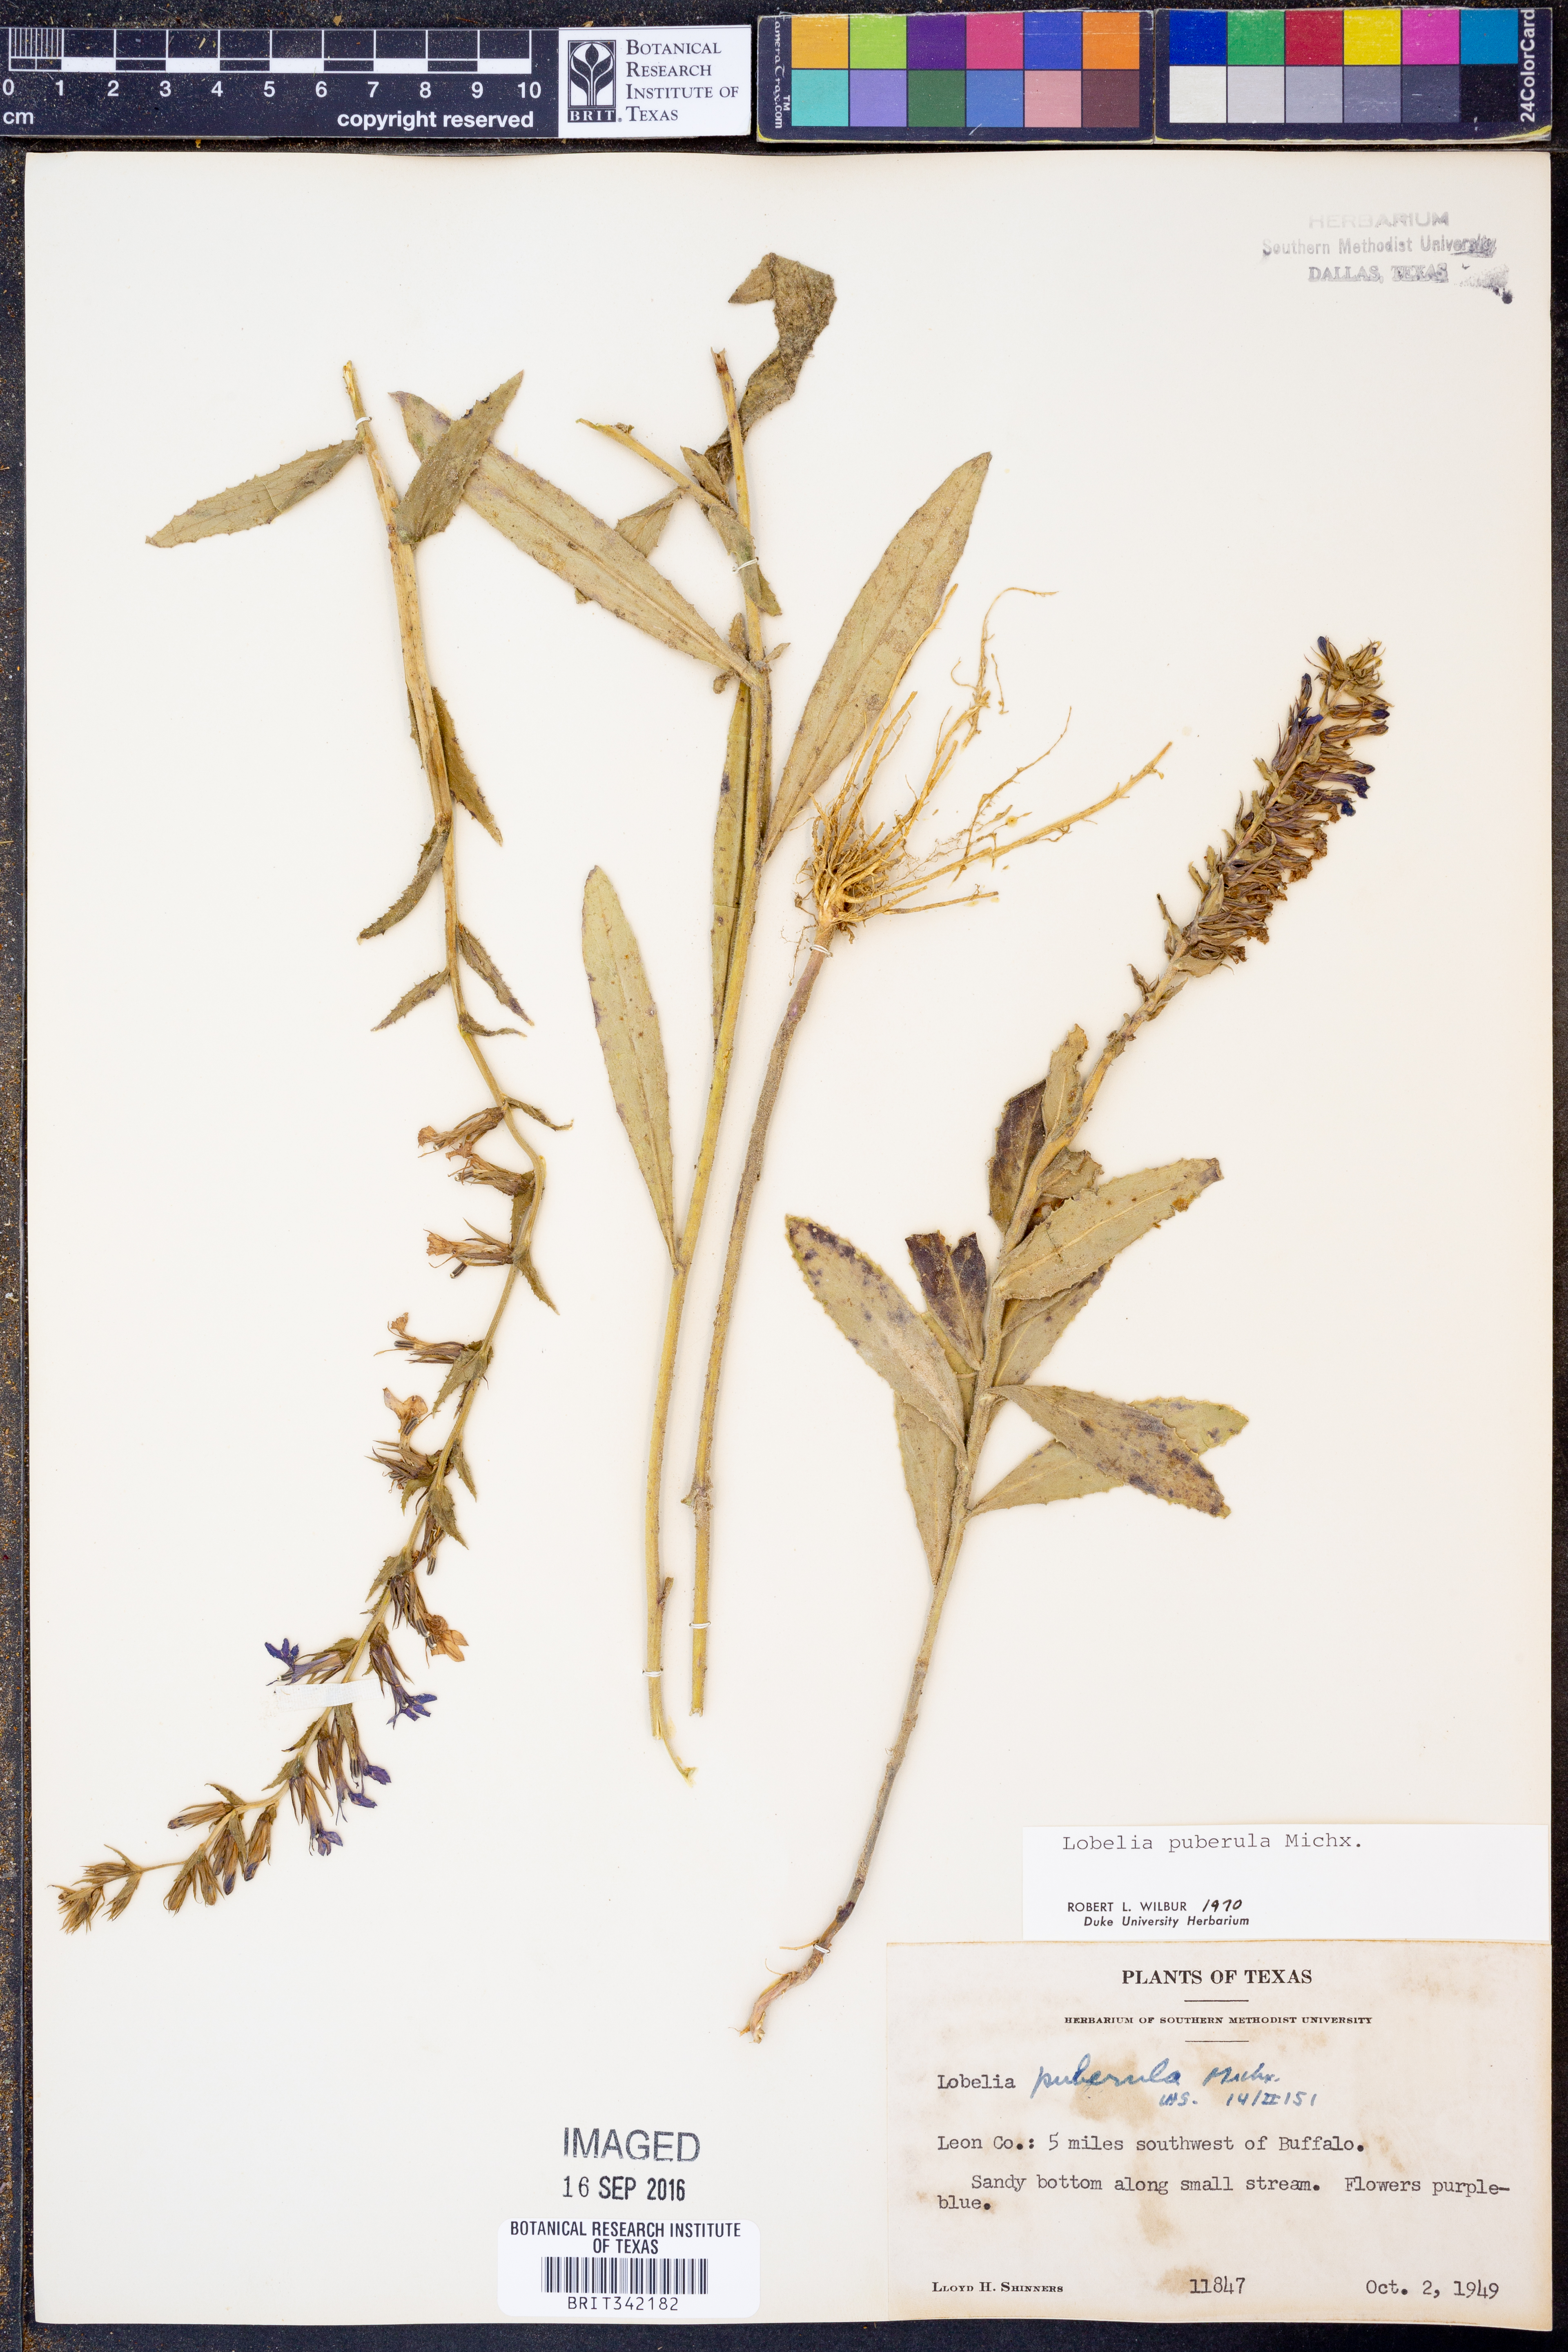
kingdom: Plantae
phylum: Tracheophyta
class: Magnoliopsida
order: Asterales
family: Campanulaceae
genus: Lobelia
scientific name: Lobelia puberula
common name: Purple dewdrop
